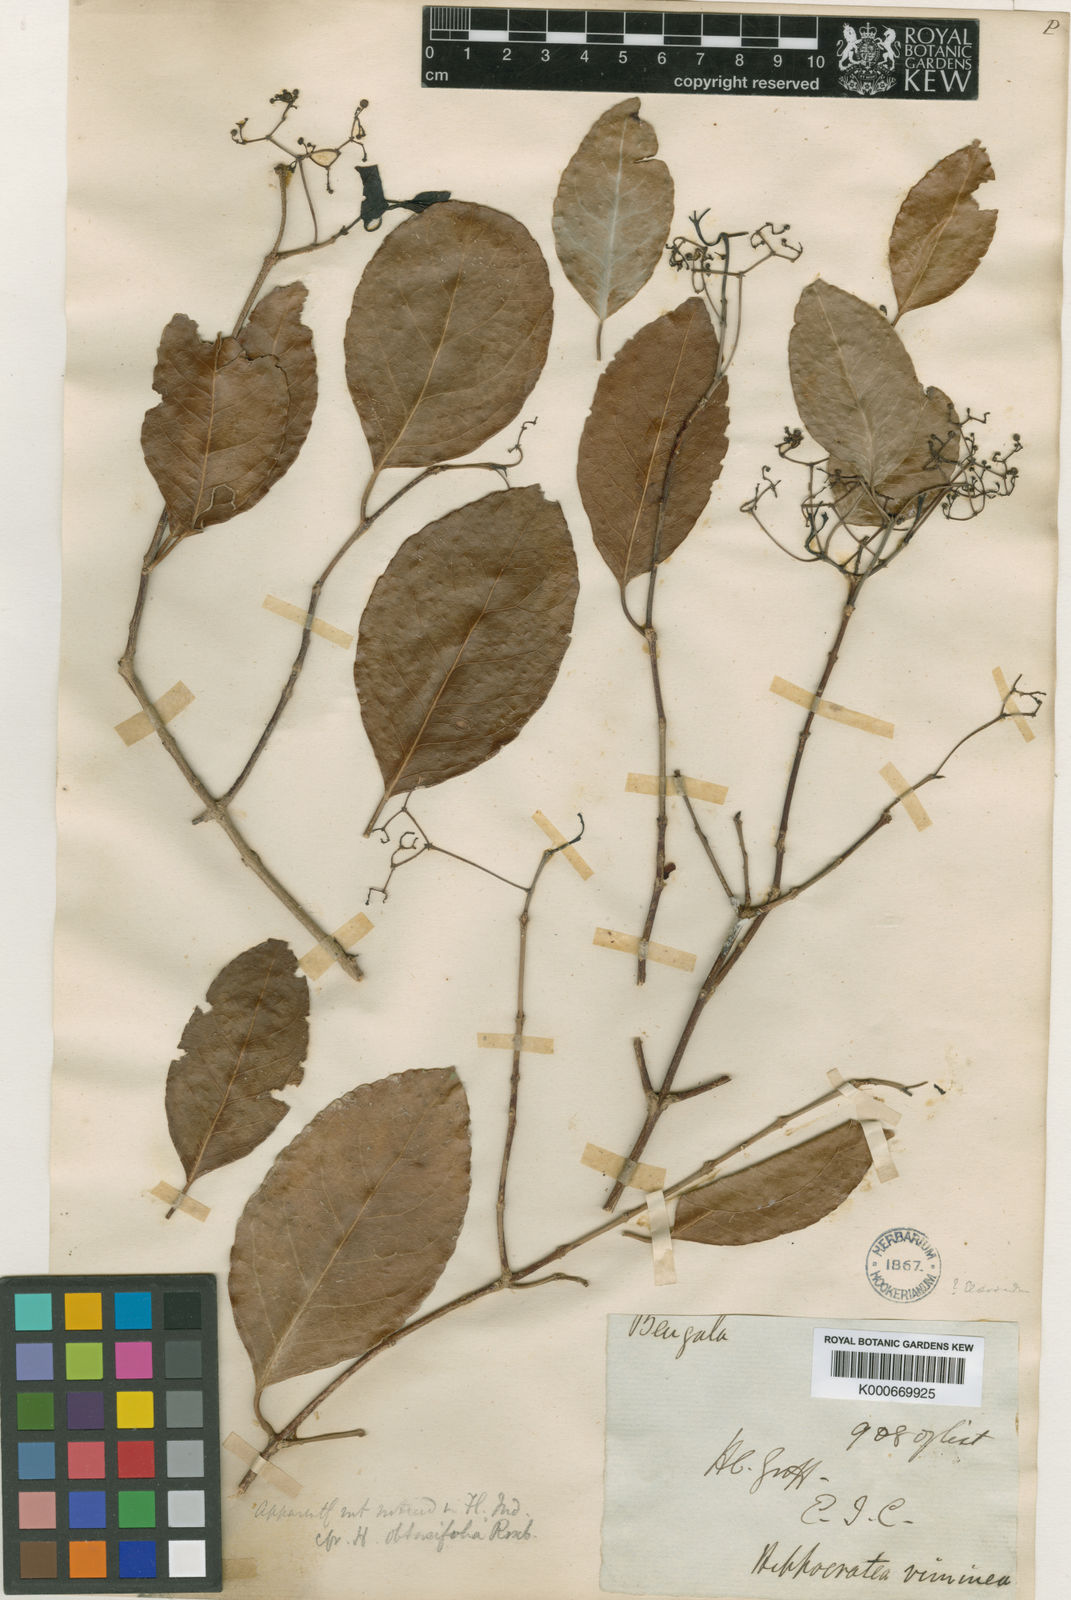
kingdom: Plantae
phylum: Tracheophyta
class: Magnoliopsida
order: Celastrales
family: Celastraceae
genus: Loeseneriella
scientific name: Loeseneriella obtusifolia
